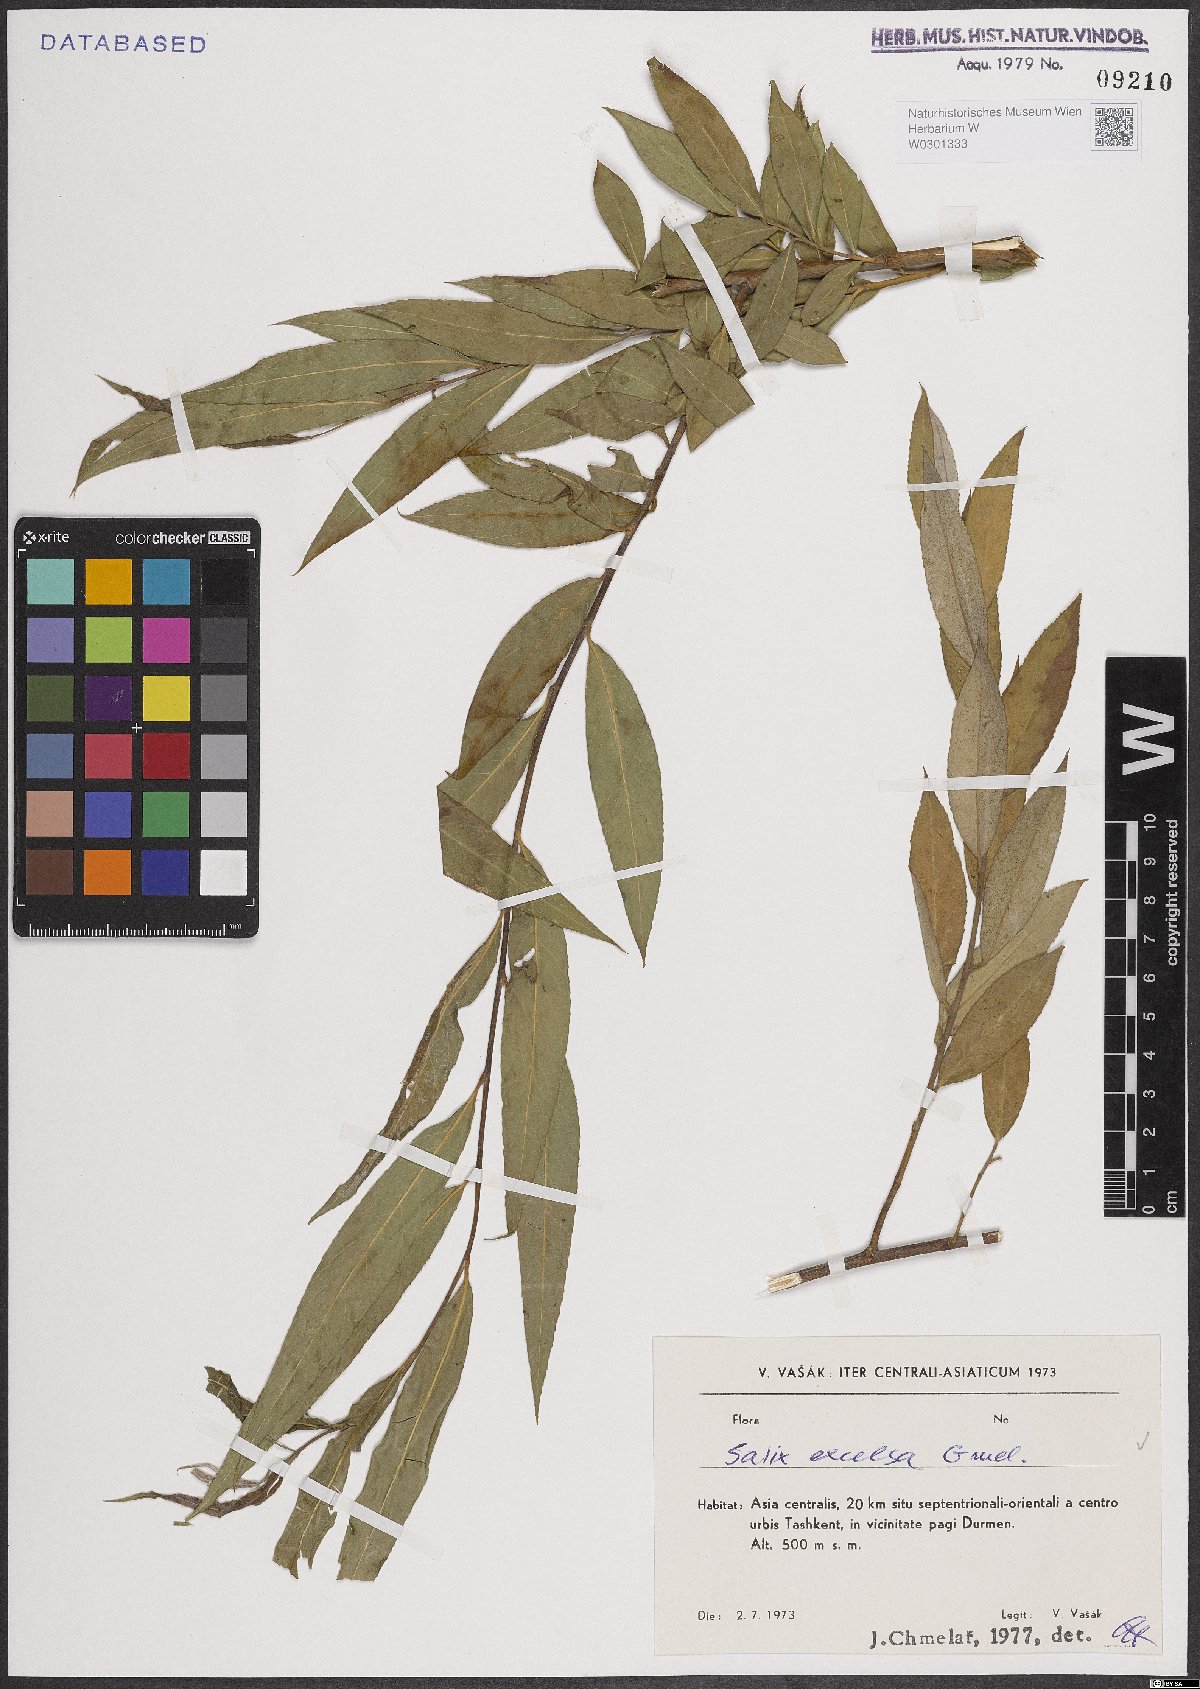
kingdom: Plantae
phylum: Tracheophyta
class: Magnoliopsida
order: Malpighiales
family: Salicaceae
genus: Salix
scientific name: Salix excelsa
